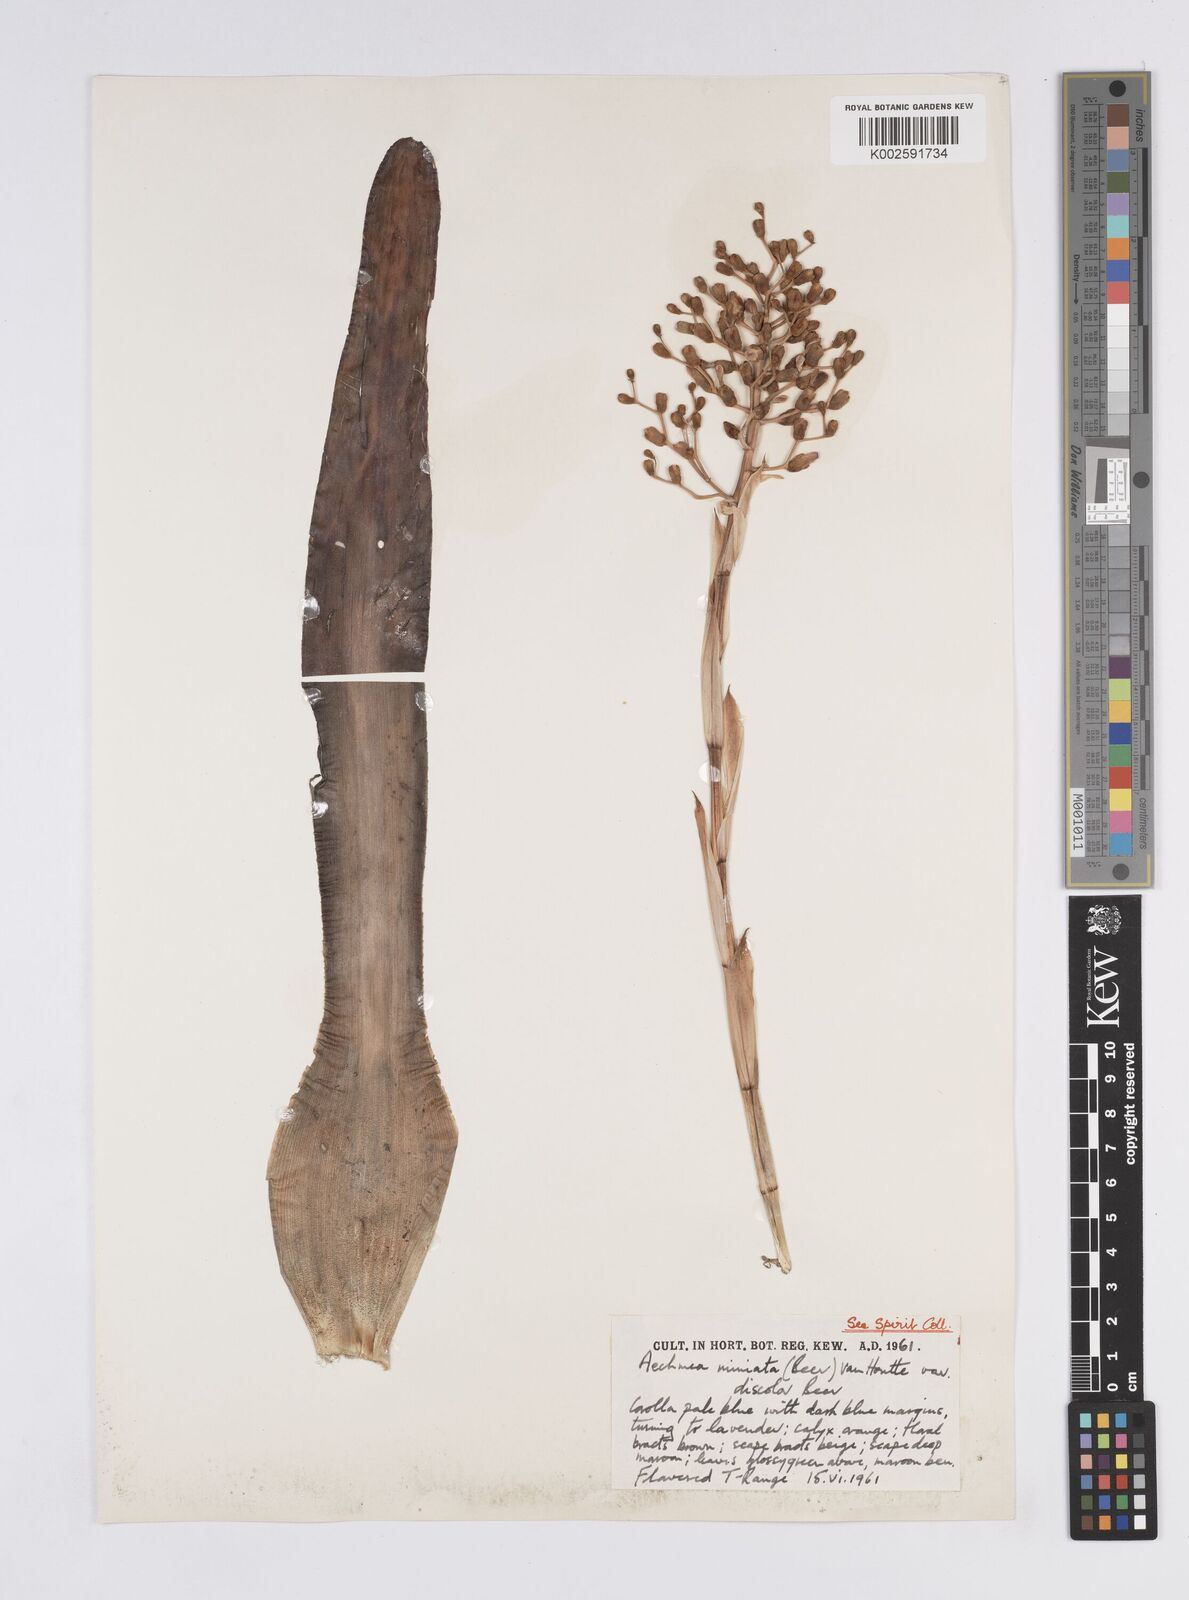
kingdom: Plantae
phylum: Tracheophyta
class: Liliopsida
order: Poales
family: Bromeliaceae
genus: Aechmea
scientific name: Aechmea miniata
